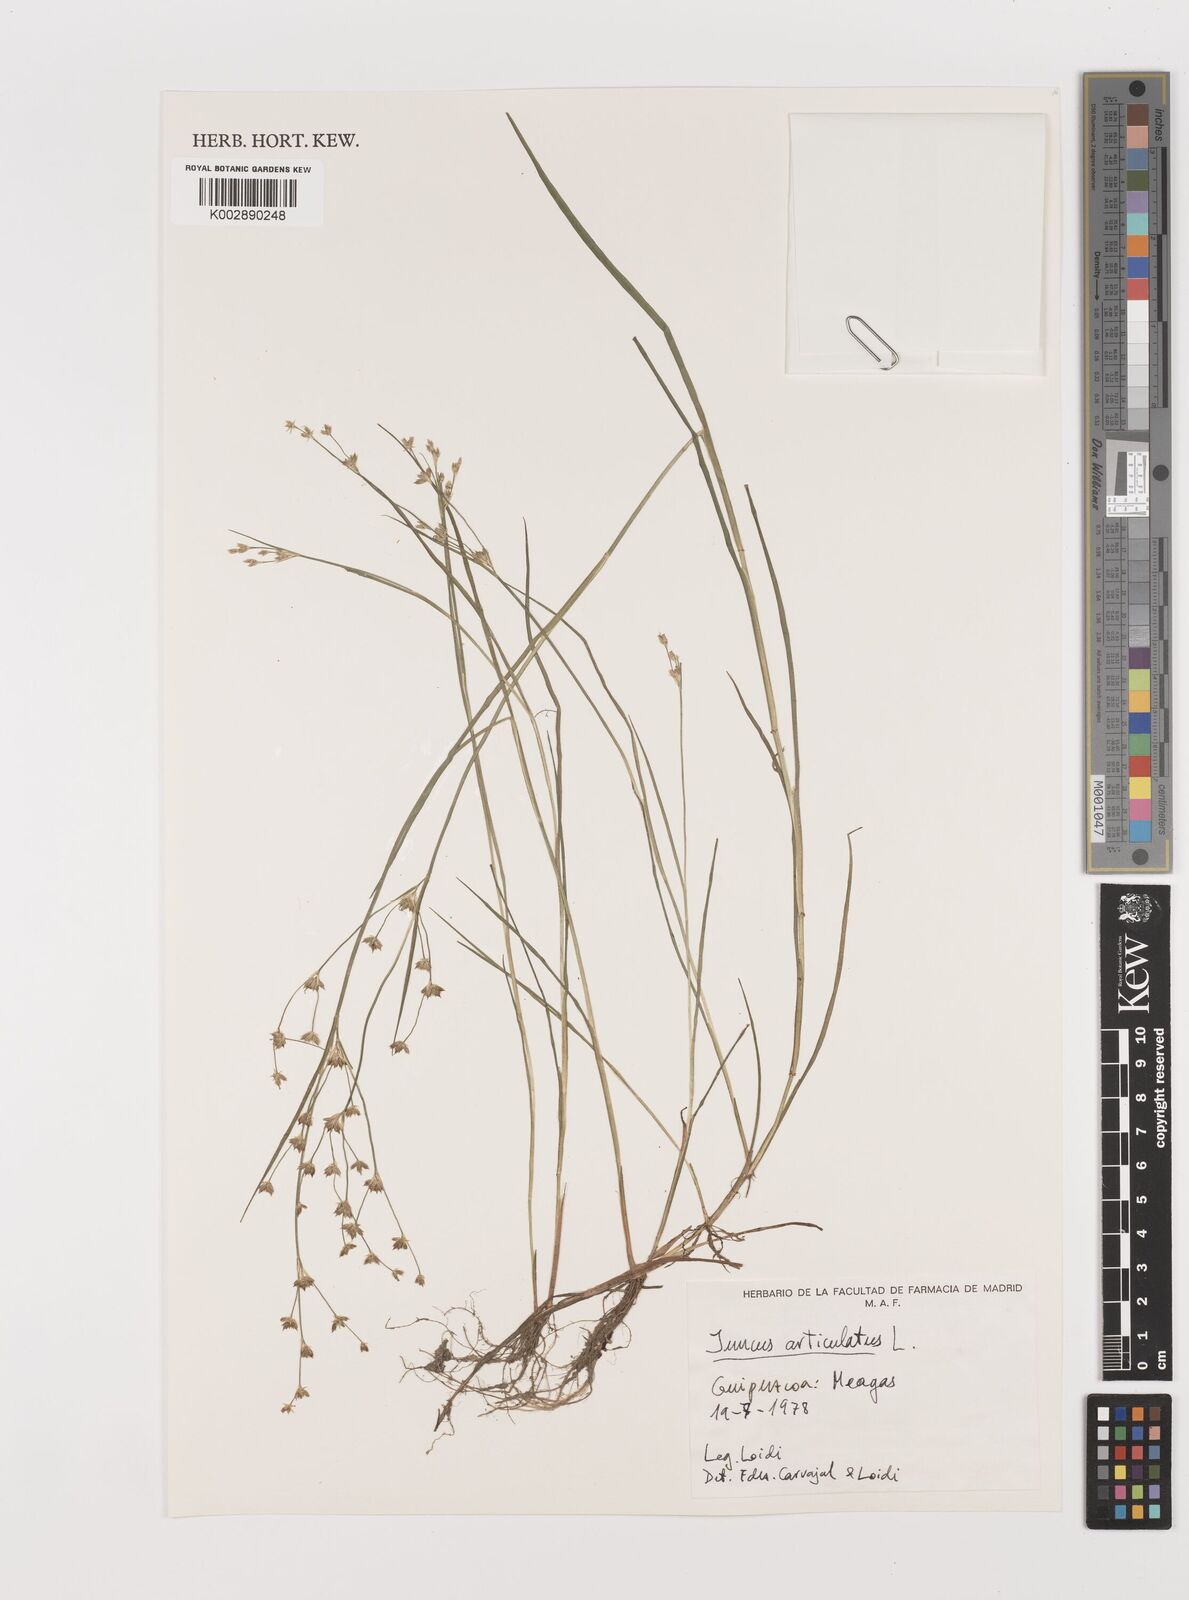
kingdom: Plantae
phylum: Tracheophyta
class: Liliopsida
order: Poales
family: Juncaceae
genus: Juncus
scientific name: Juncus articulatus
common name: Jointed rush
